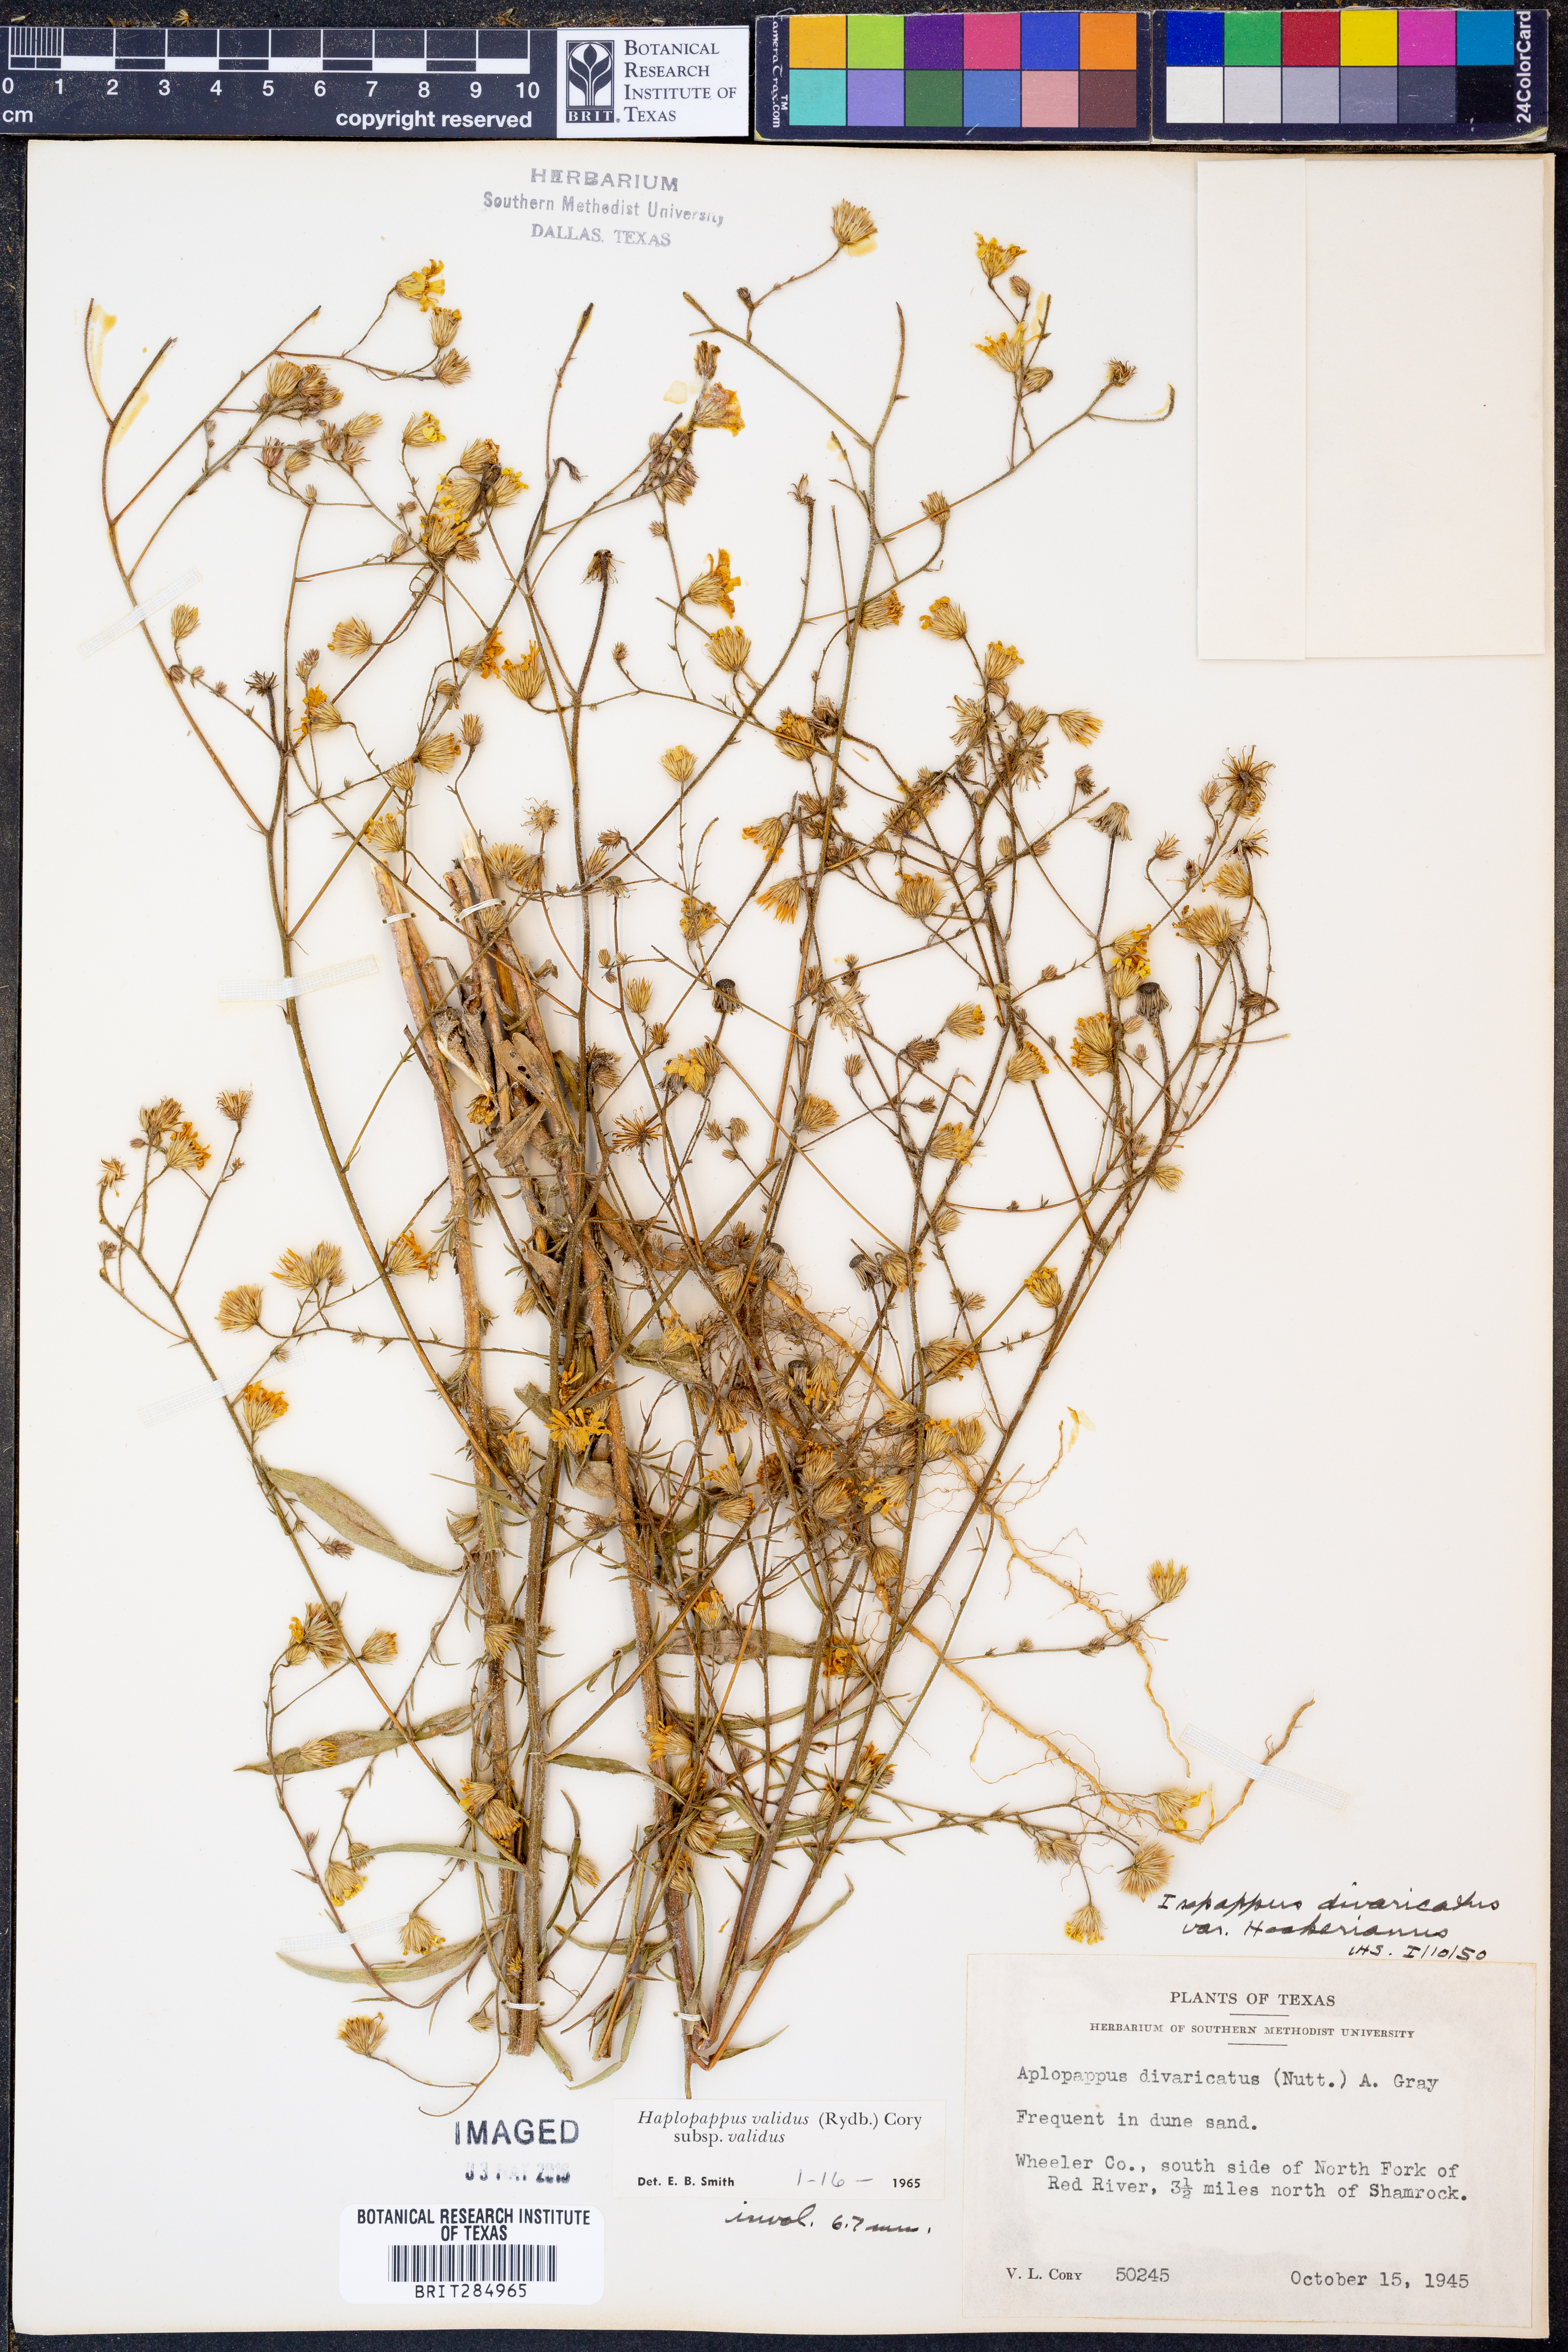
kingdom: Plantae
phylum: Tracheophyta
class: Magnoliopsida
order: Asterales
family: Asteraceae
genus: Croptilon
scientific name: Croptilon hookerianum
